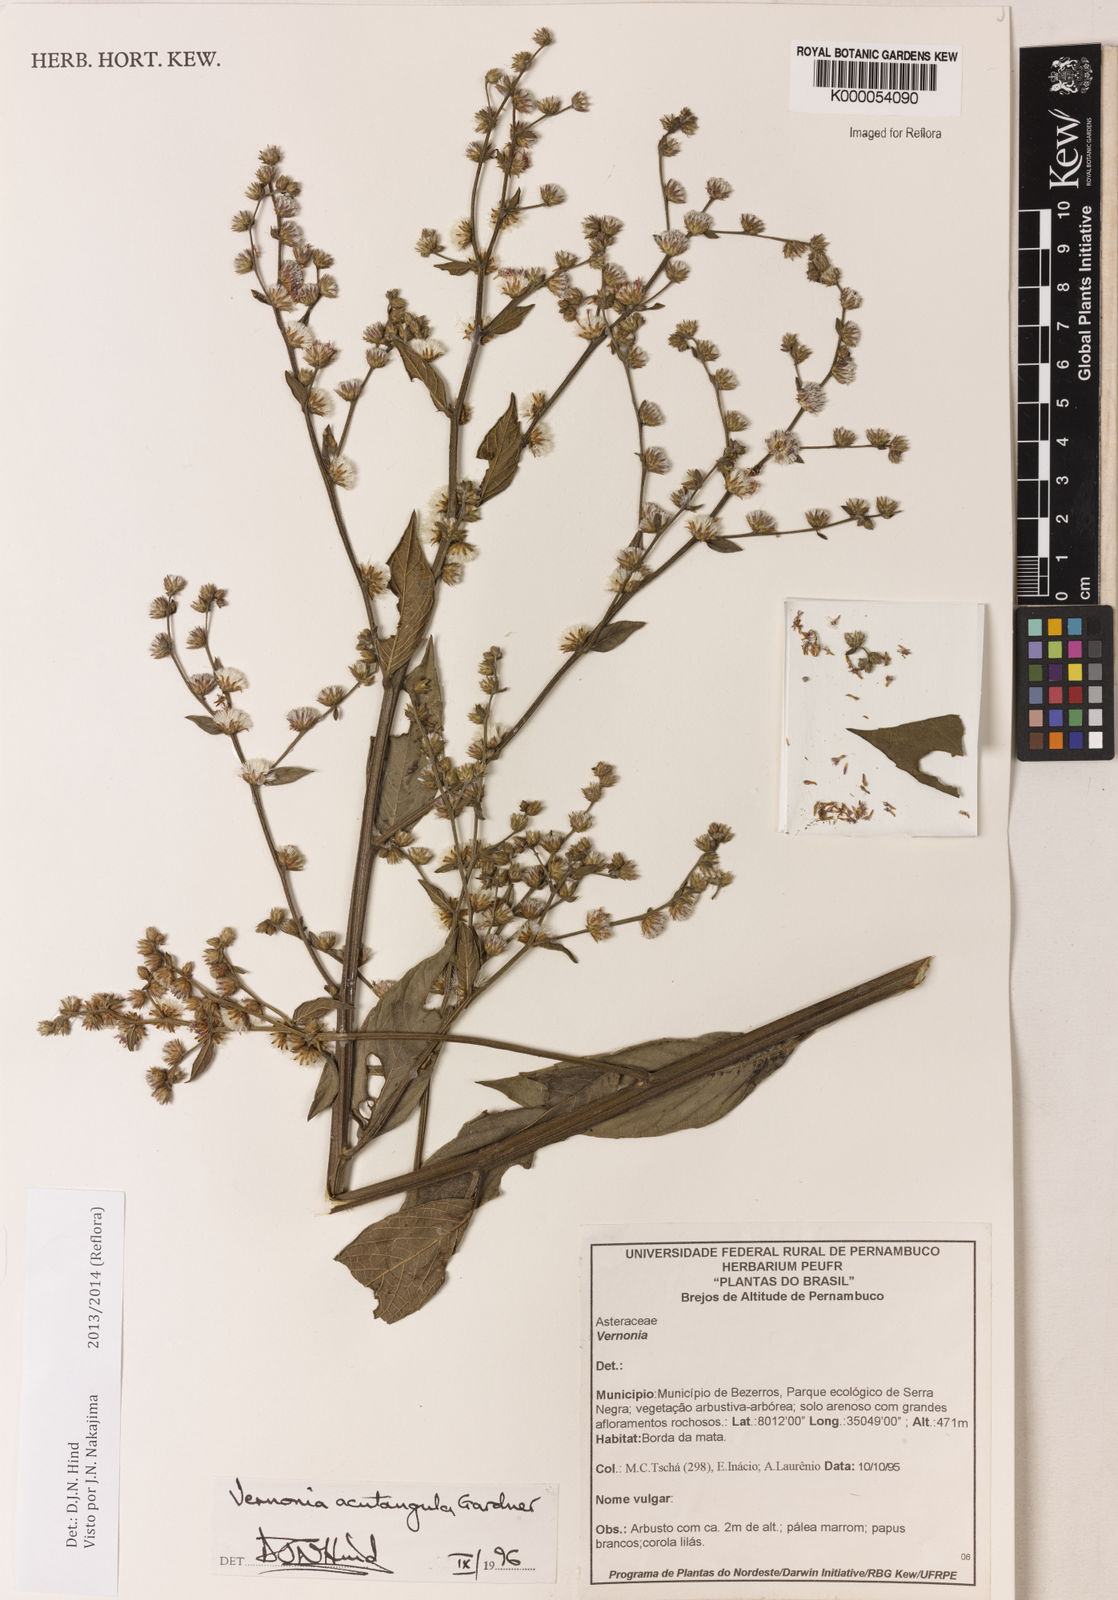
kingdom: Plantae
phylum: Tracheophyta
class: Magnoliopsida
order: Asterales
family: Asteraceae
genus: Lepidaploa
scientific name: Lepidaploa acutangula
